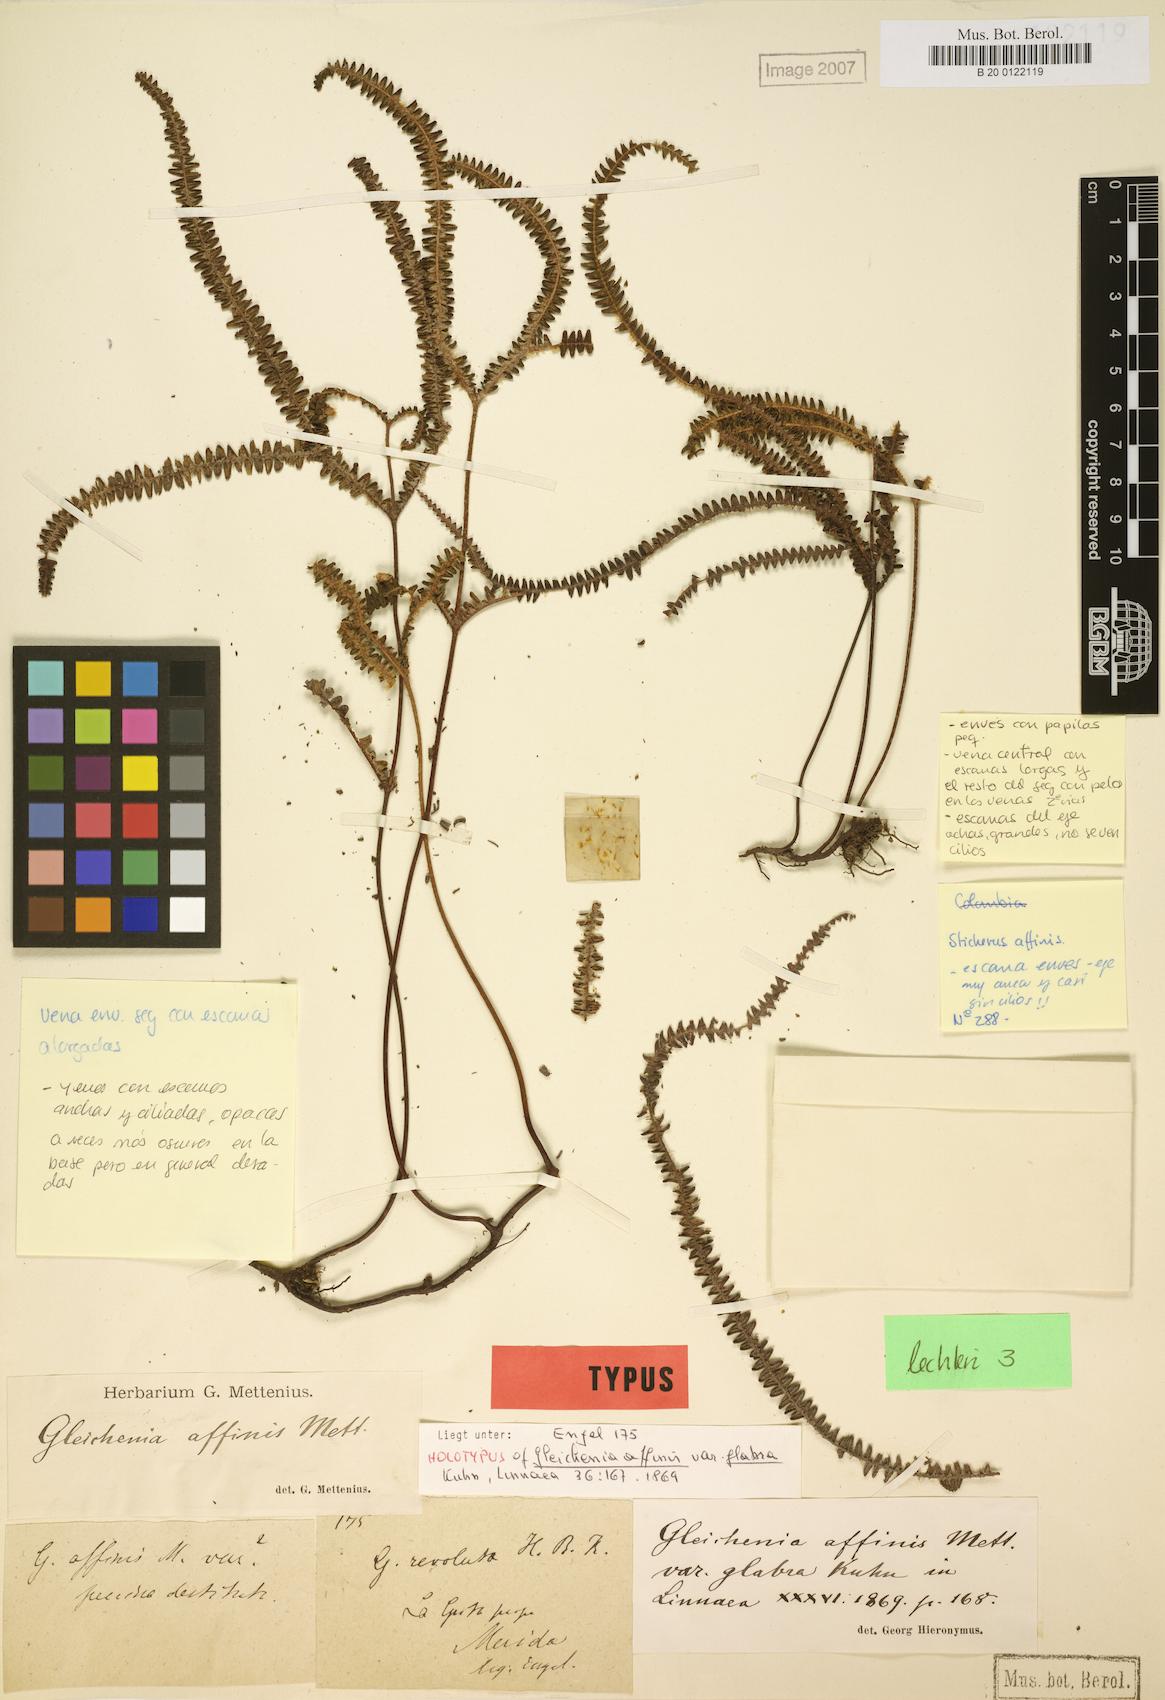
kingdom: Plantae
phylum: Tracheophyta
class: Polypodiopsida
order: Gleicheniales
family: Gleicheniaceae
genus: Sticherus
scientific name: Sticherus revolutus
